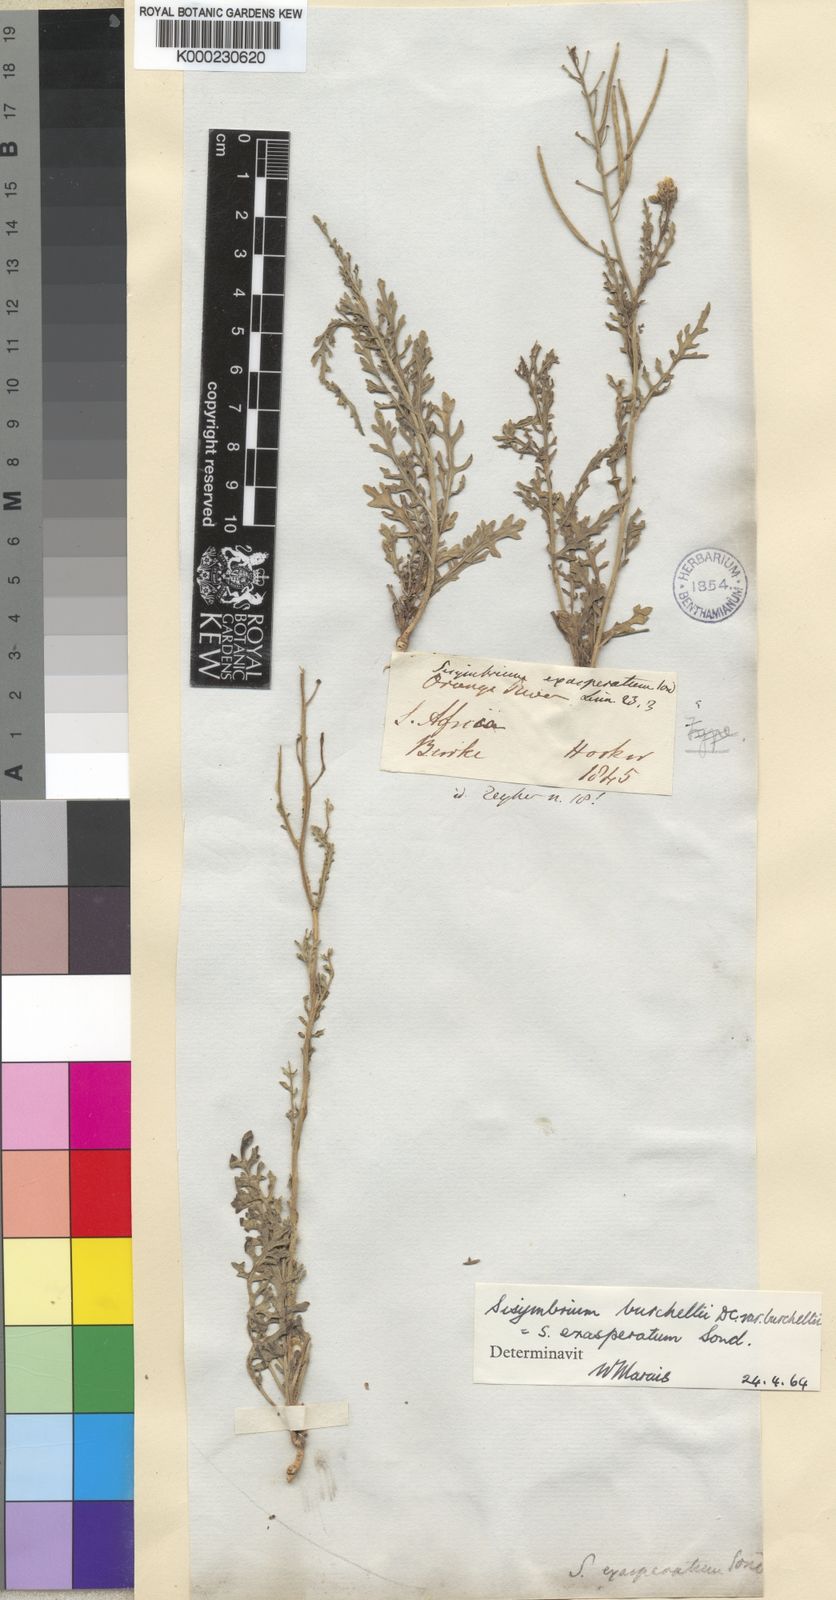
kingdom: Plantae
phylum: Tracheophyta
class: Magnoliopsida
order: Brassicales
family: Brassicaceae
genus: Sisymbrium
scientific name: Sisymbrium burchellii
